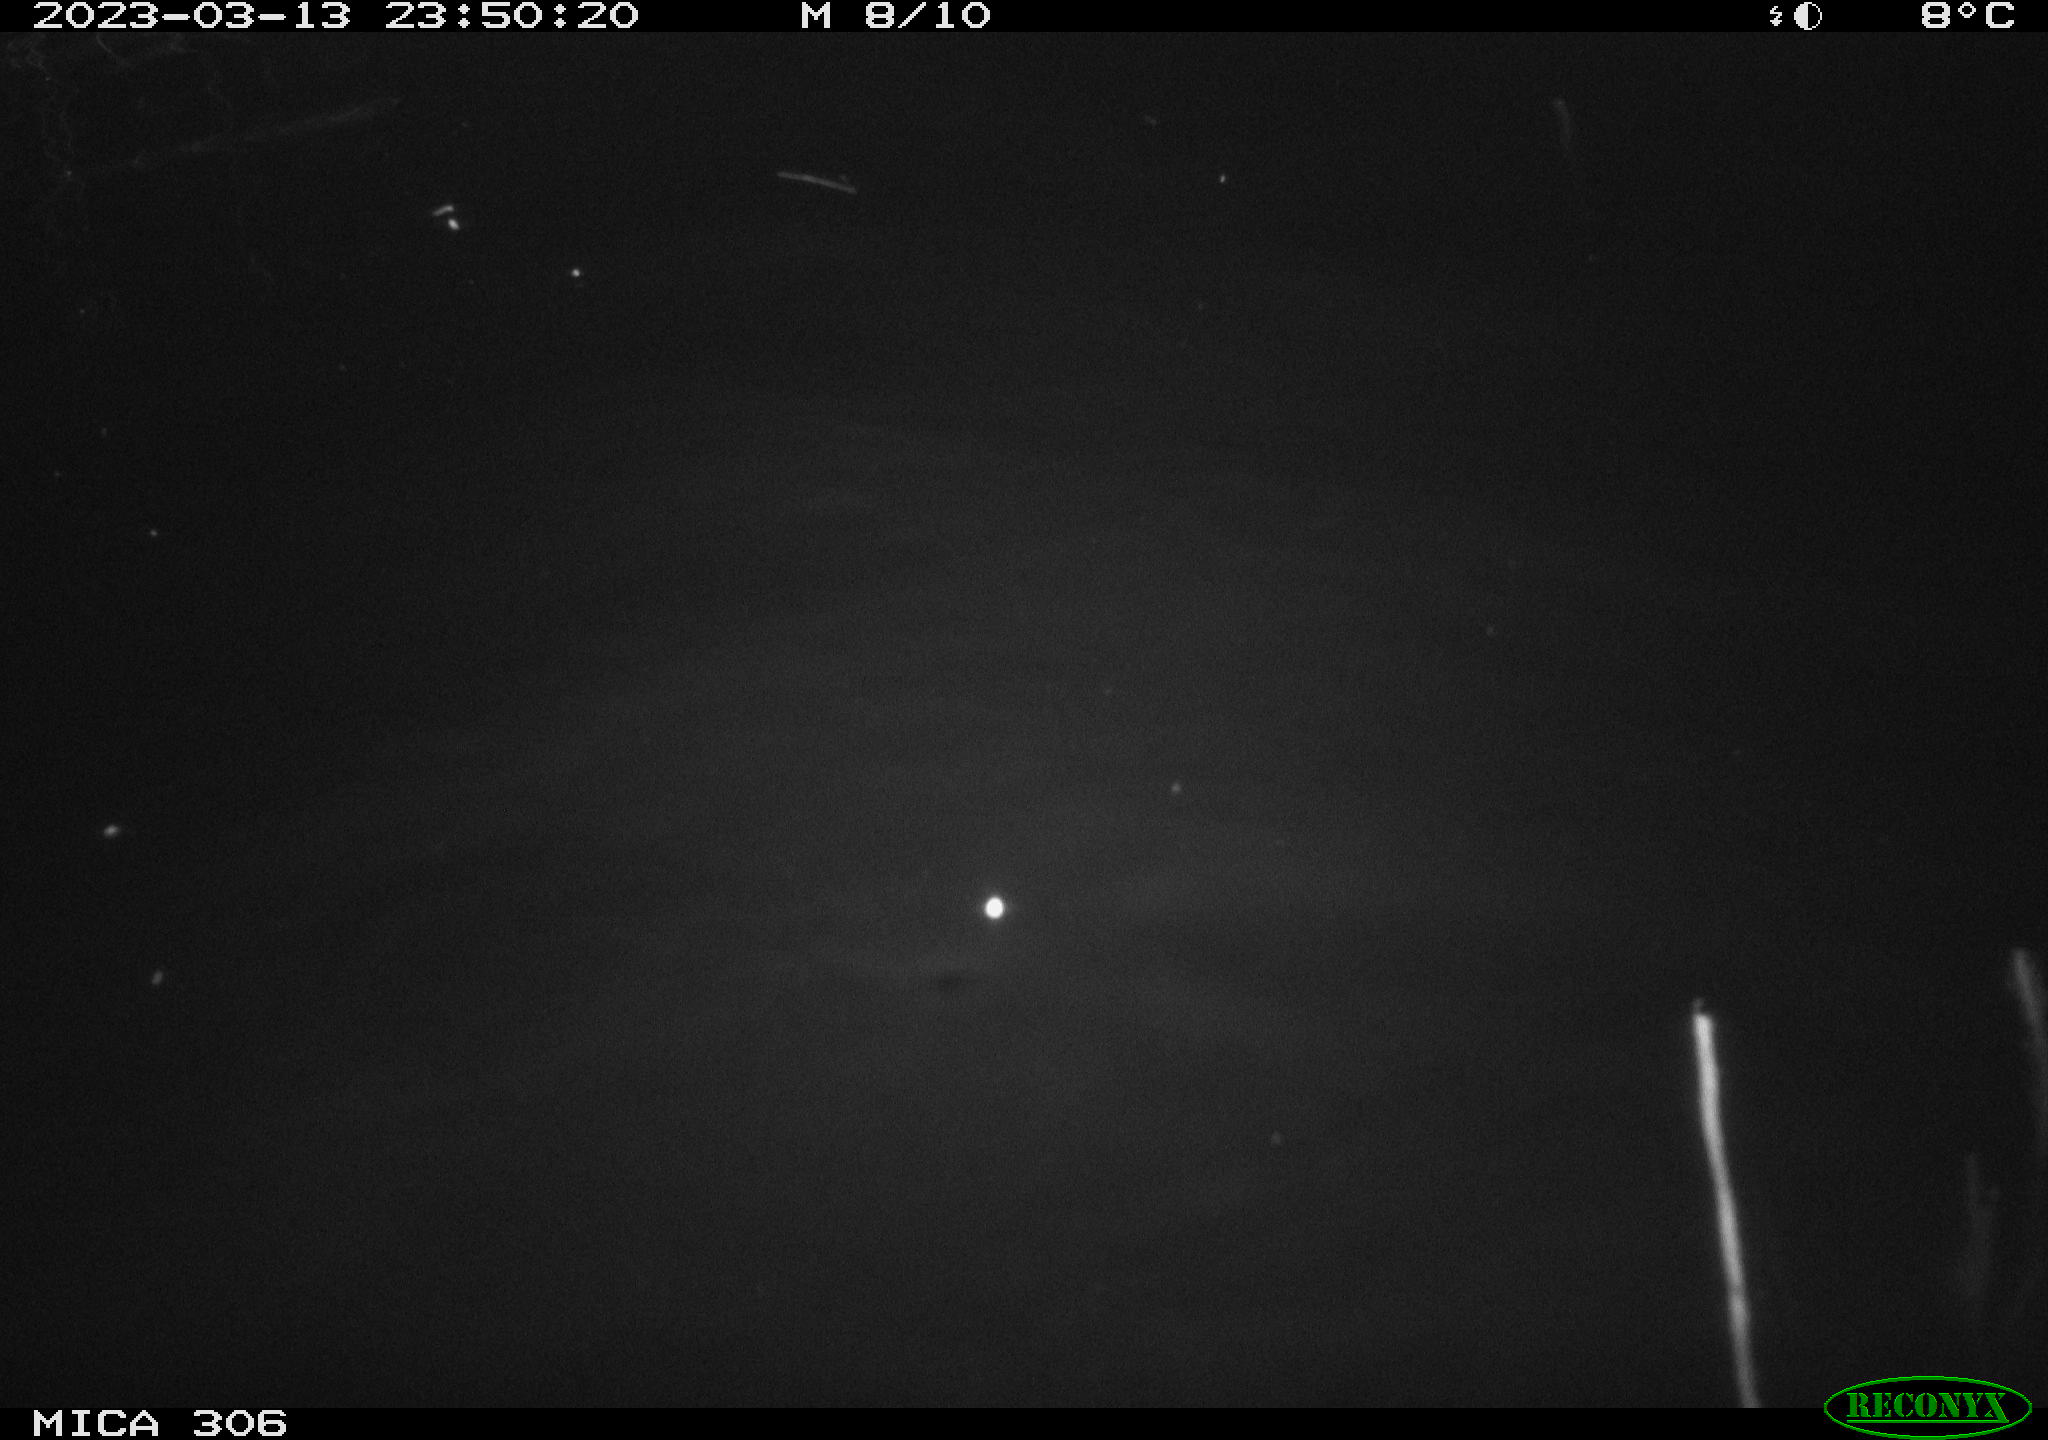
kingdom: Animalia
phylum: Chordata
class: Mammalia
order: Rodentia
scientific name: Rodentia
